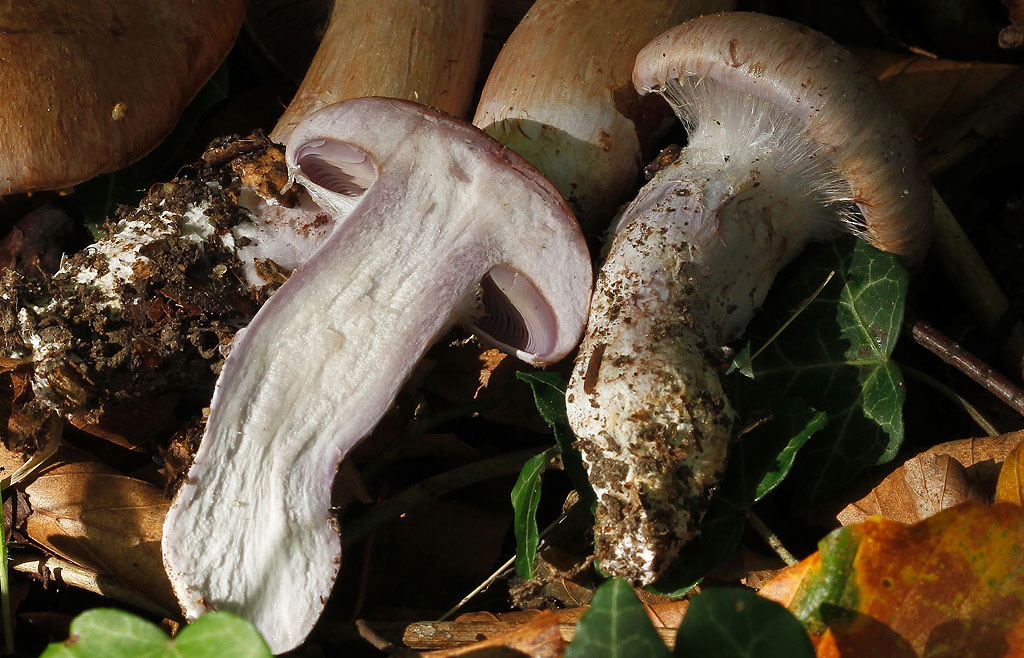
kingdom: Fungi
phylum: Basidiomycota
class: Agaricomycetes
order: Agaricales
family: Cortinariaceae
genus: Cortinarius
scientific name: Cortinarius largus
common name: violetrandet slørhat
